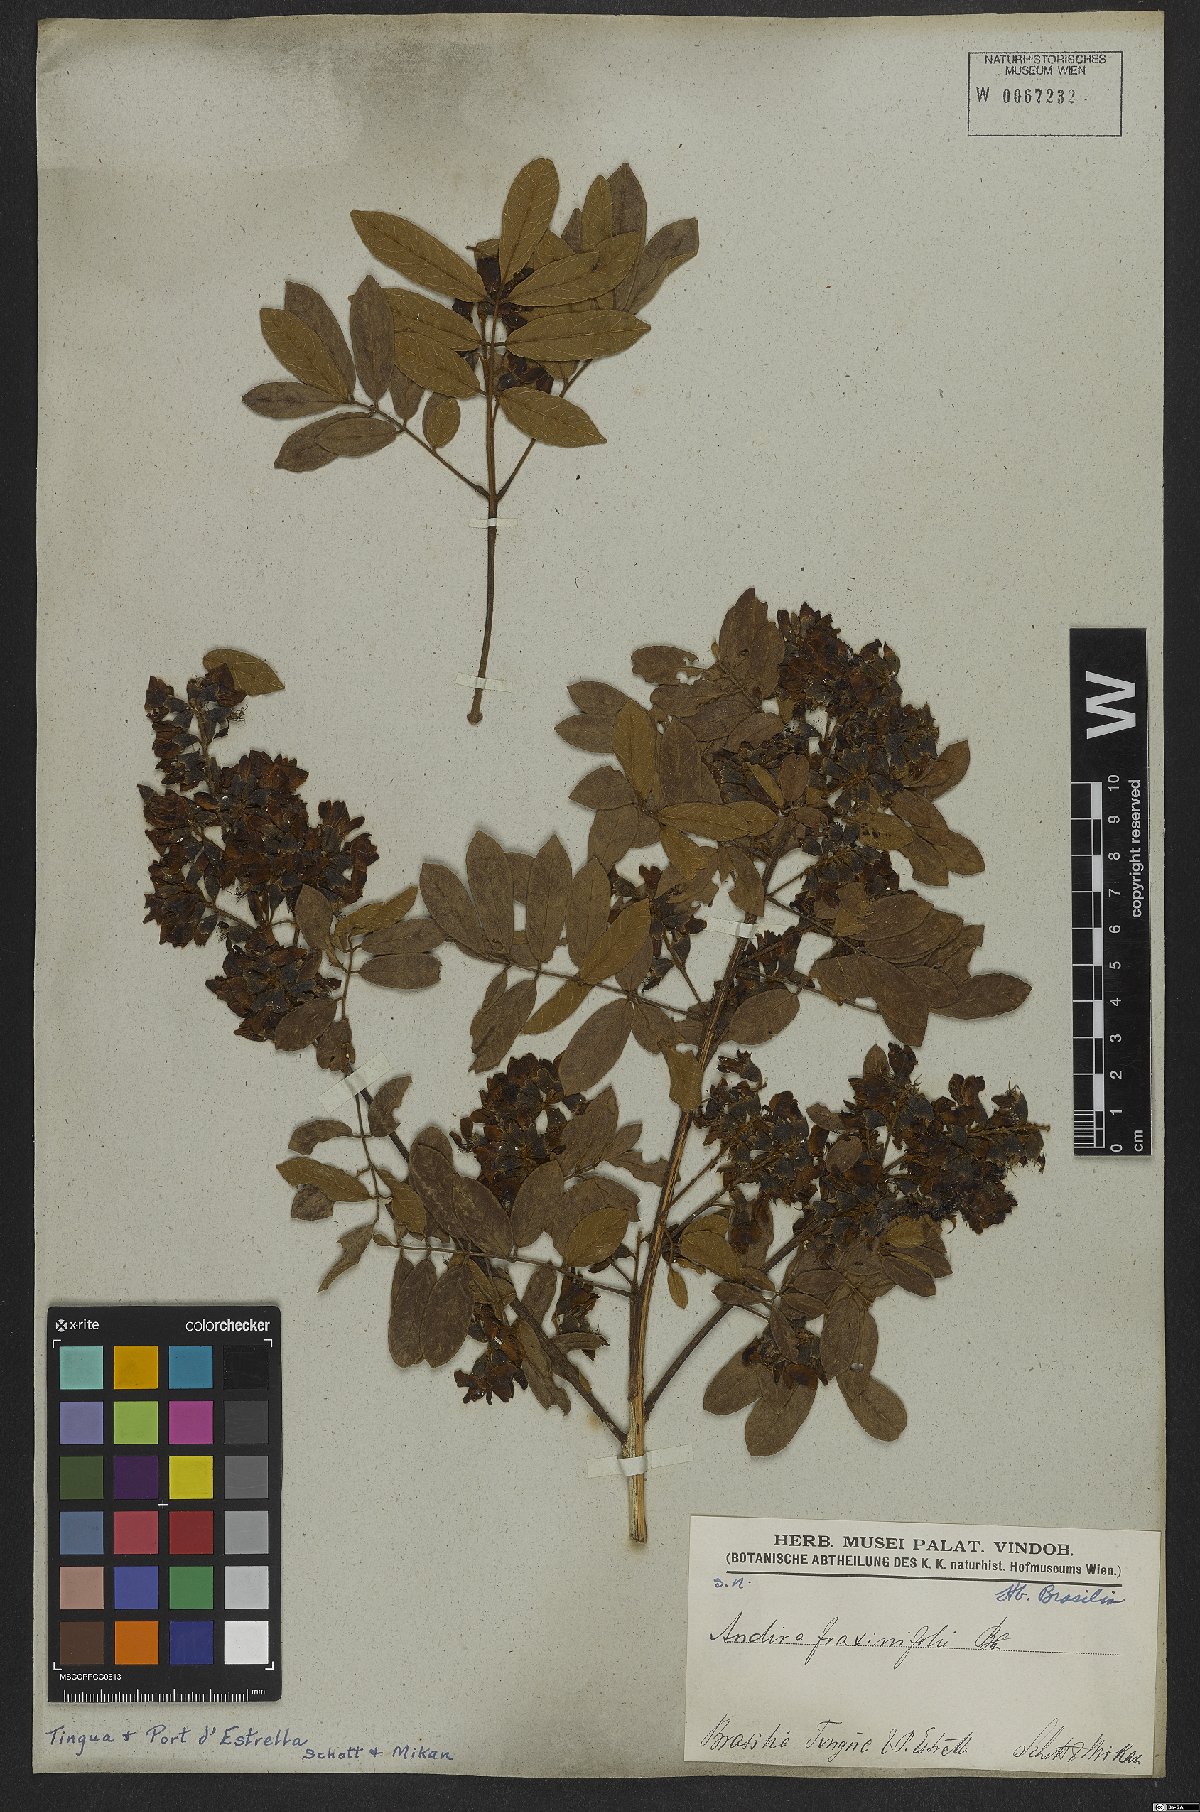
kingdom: Plantae
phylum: Tracheophyta
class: Magnoliopsida
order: Fabales
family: Fabaceae
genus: Andira
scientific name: Andira fraxinifolia
